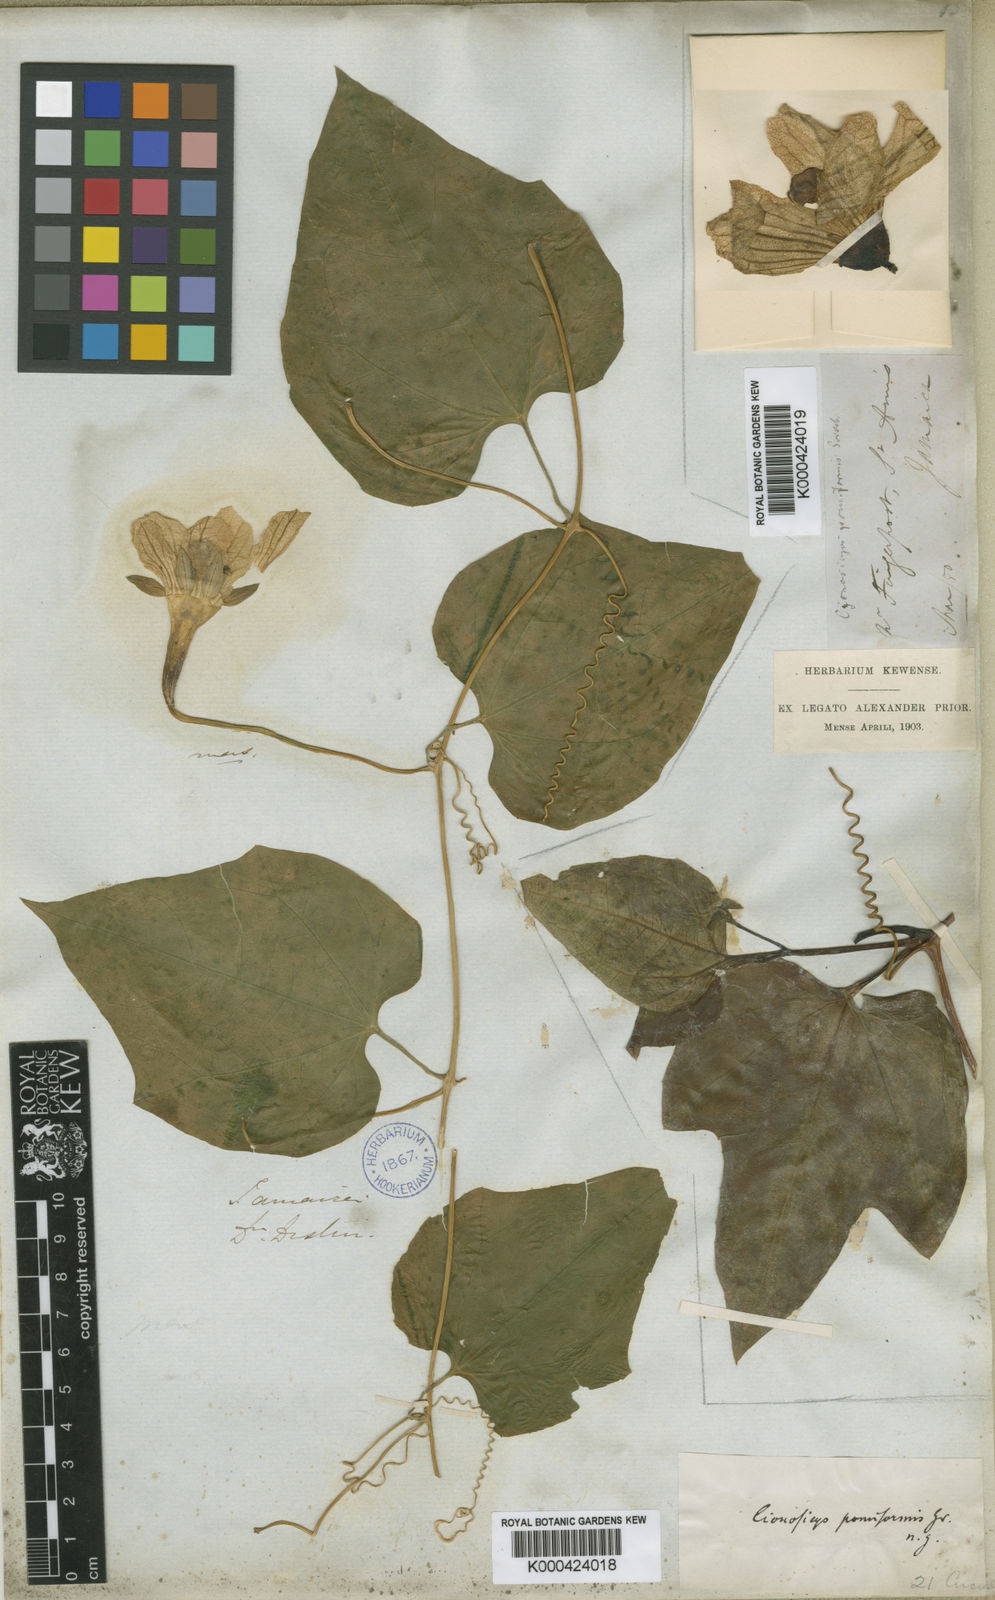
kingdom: Plantae
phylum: Tracheophyta
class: Magnoliopsida
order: Cucurbitales
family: Cucurbitaceae
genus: Cionosicys
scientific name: Cionosicys pomiformis
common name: Duppy gourd
